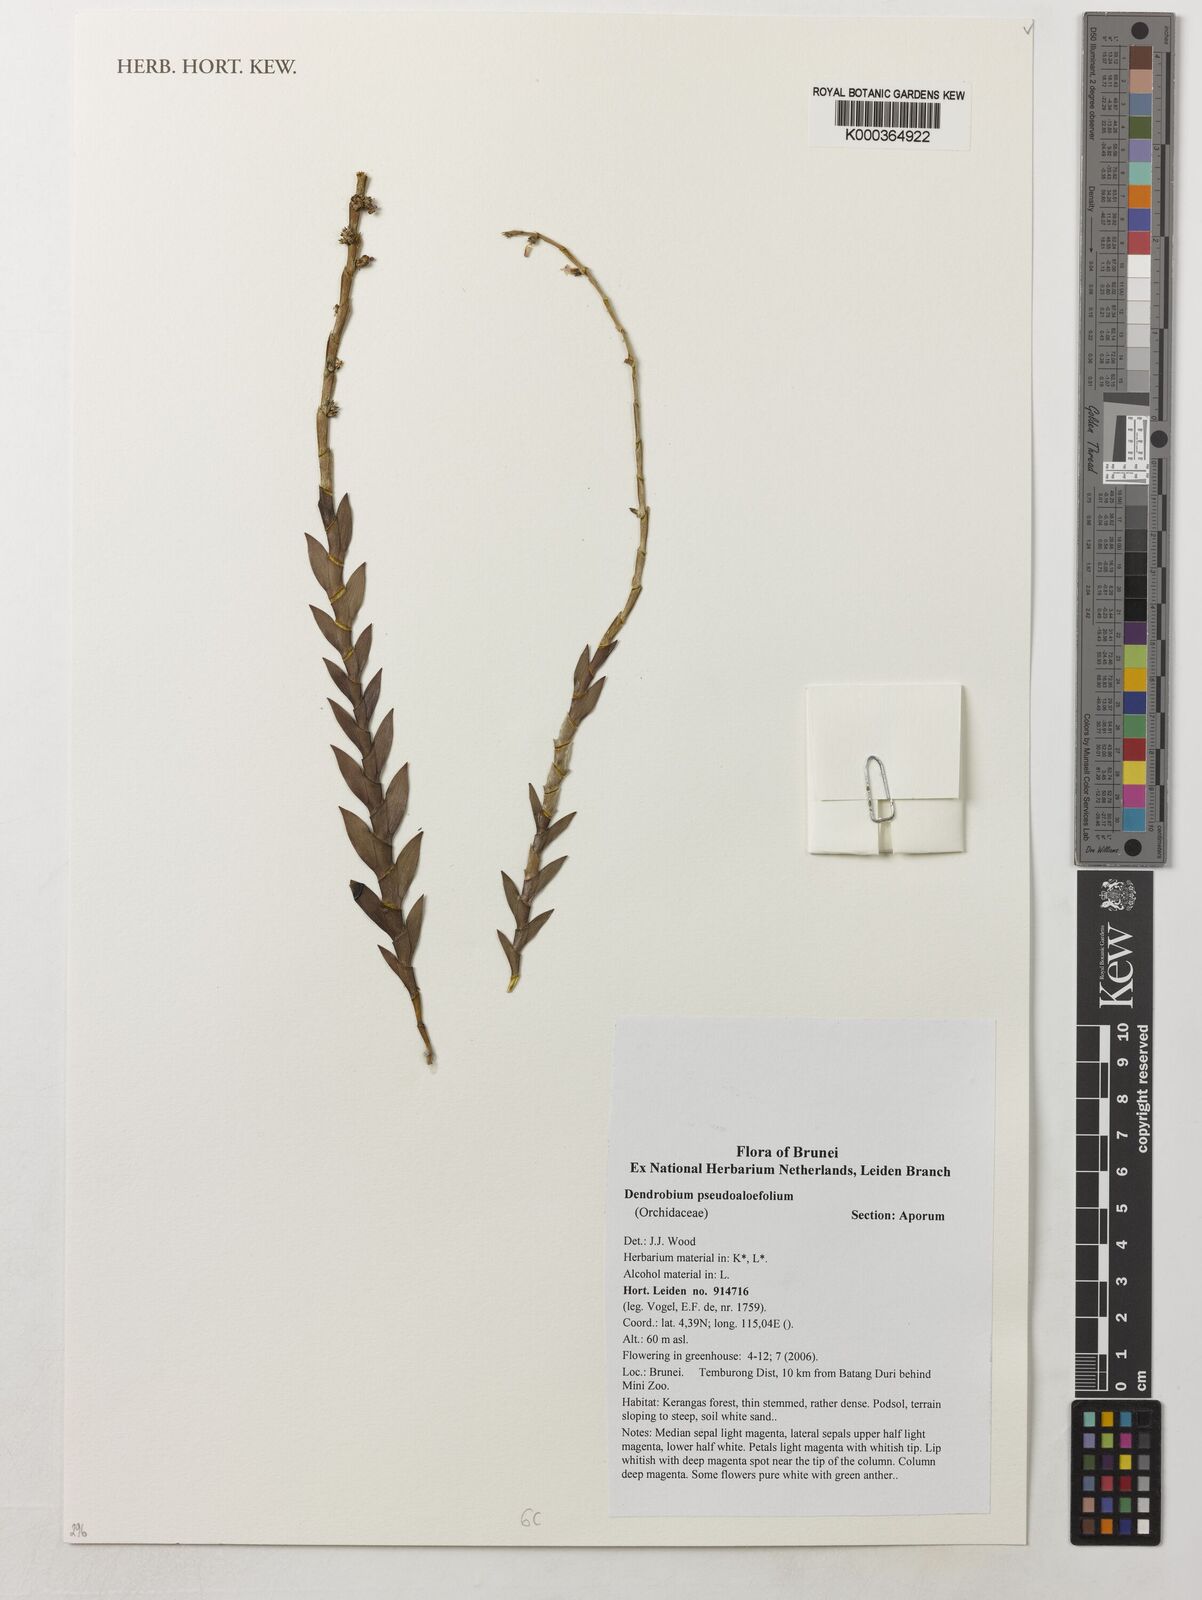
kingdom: Plantae
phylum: Tracheophyta
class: Liliopsida
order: Asparagales
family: Orchidaceae
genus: Dendrobium
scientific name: Dendrobium pseudoaloifolium
